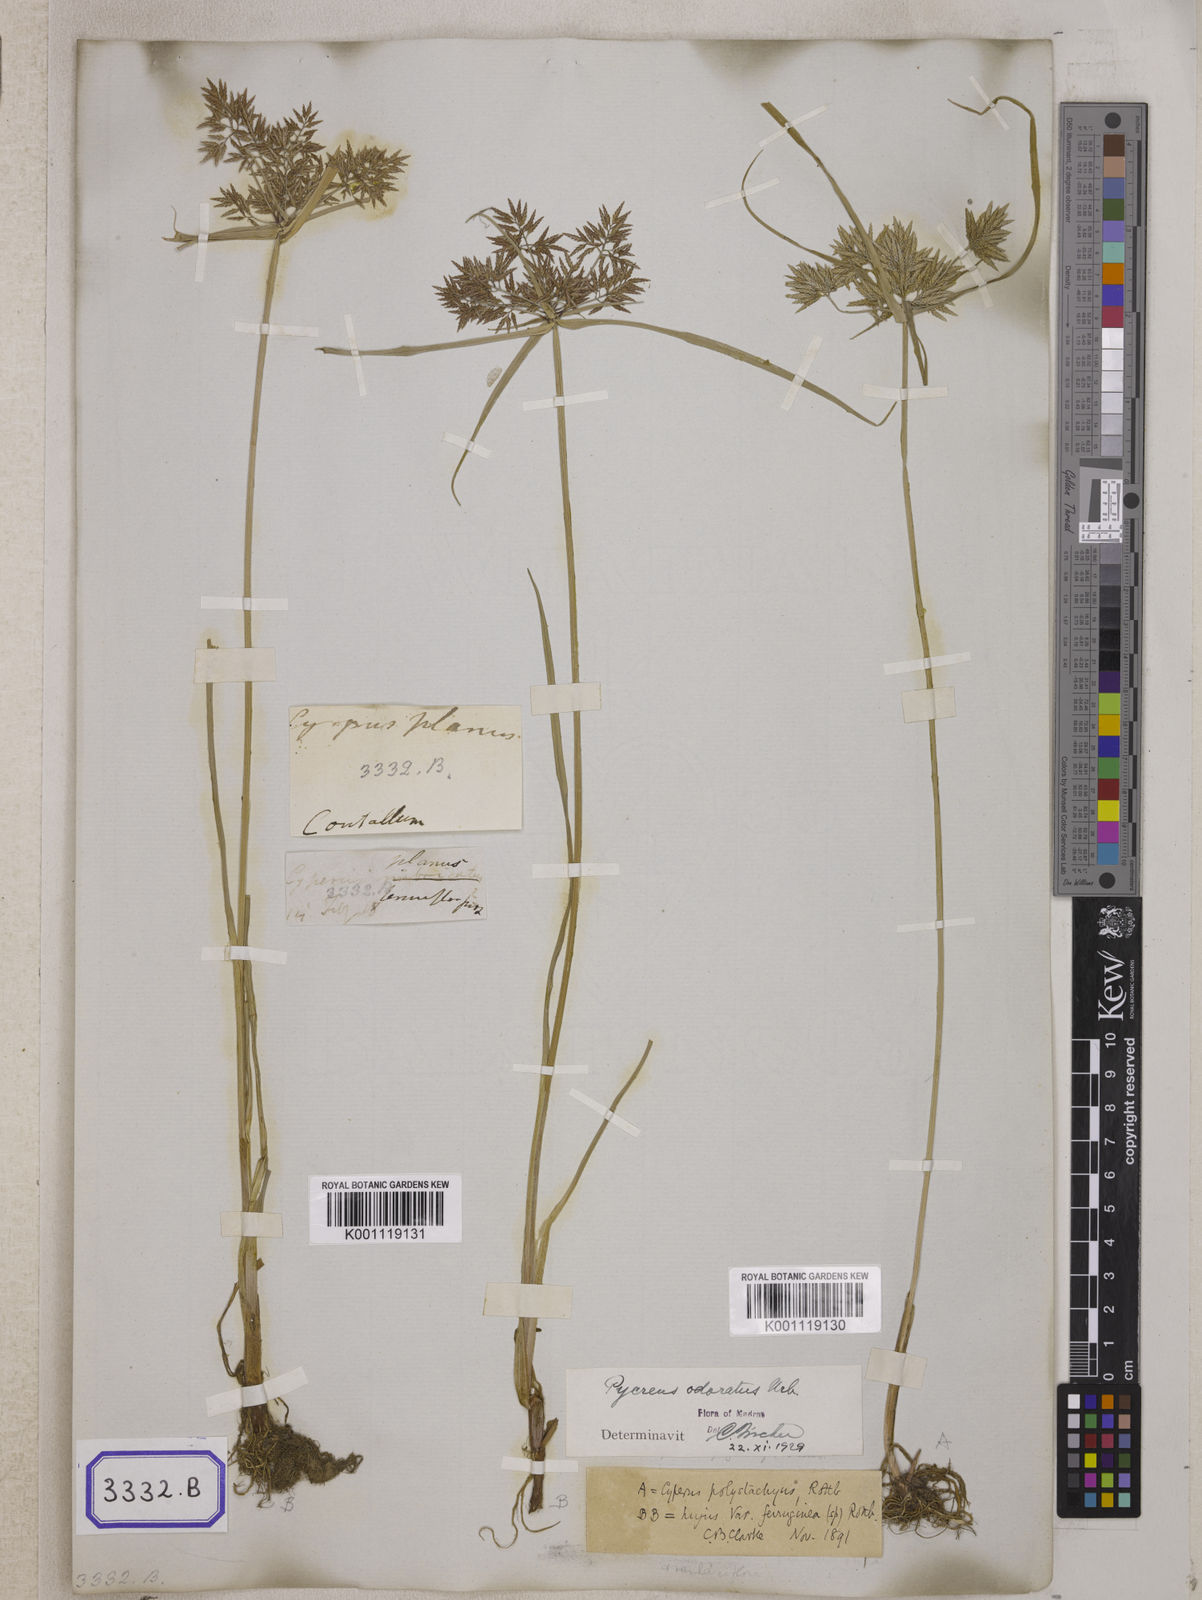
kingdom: Plantae
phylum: Tracheophyta
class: Liliopsida
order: Poales
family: Cyperaceae
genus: Cyperus
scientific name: Cyperus
